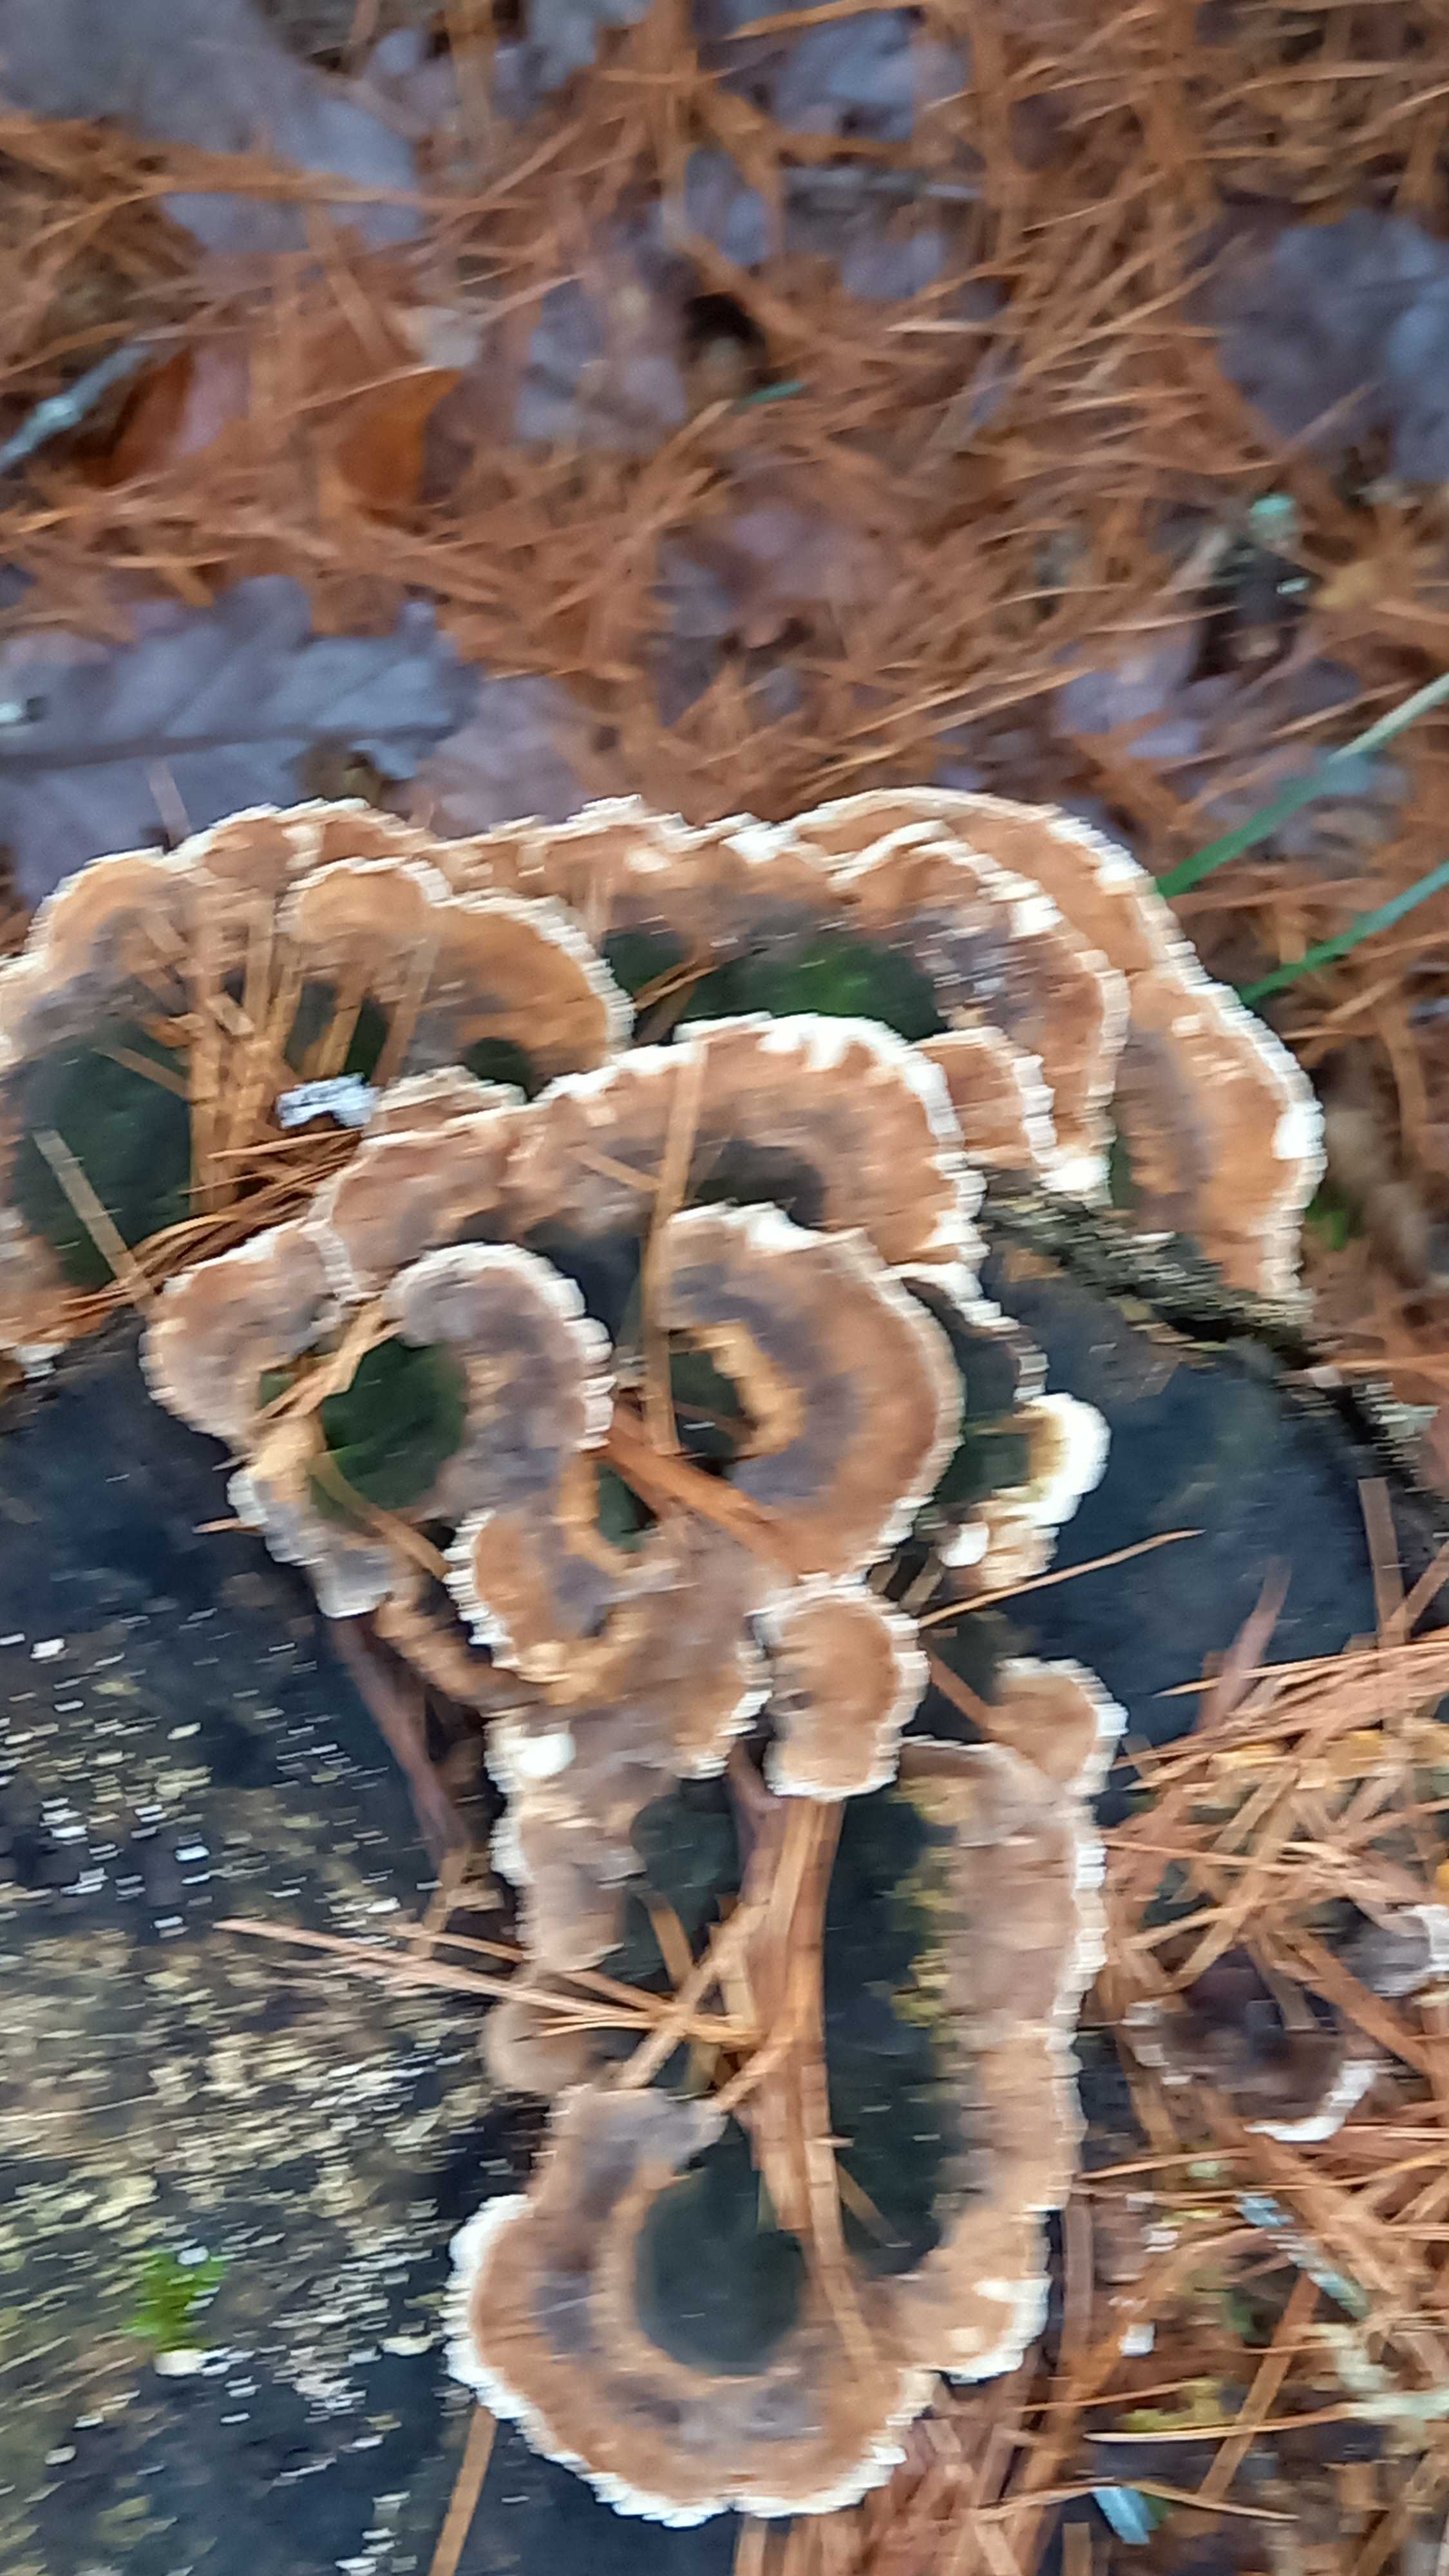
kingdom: Fungi
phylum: Basidiomycota
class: Agaricomycetes
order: Polyporales
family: Polyporaceae
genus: Trametes
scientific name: Trametes versicolor
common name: broget læderporesvamp
